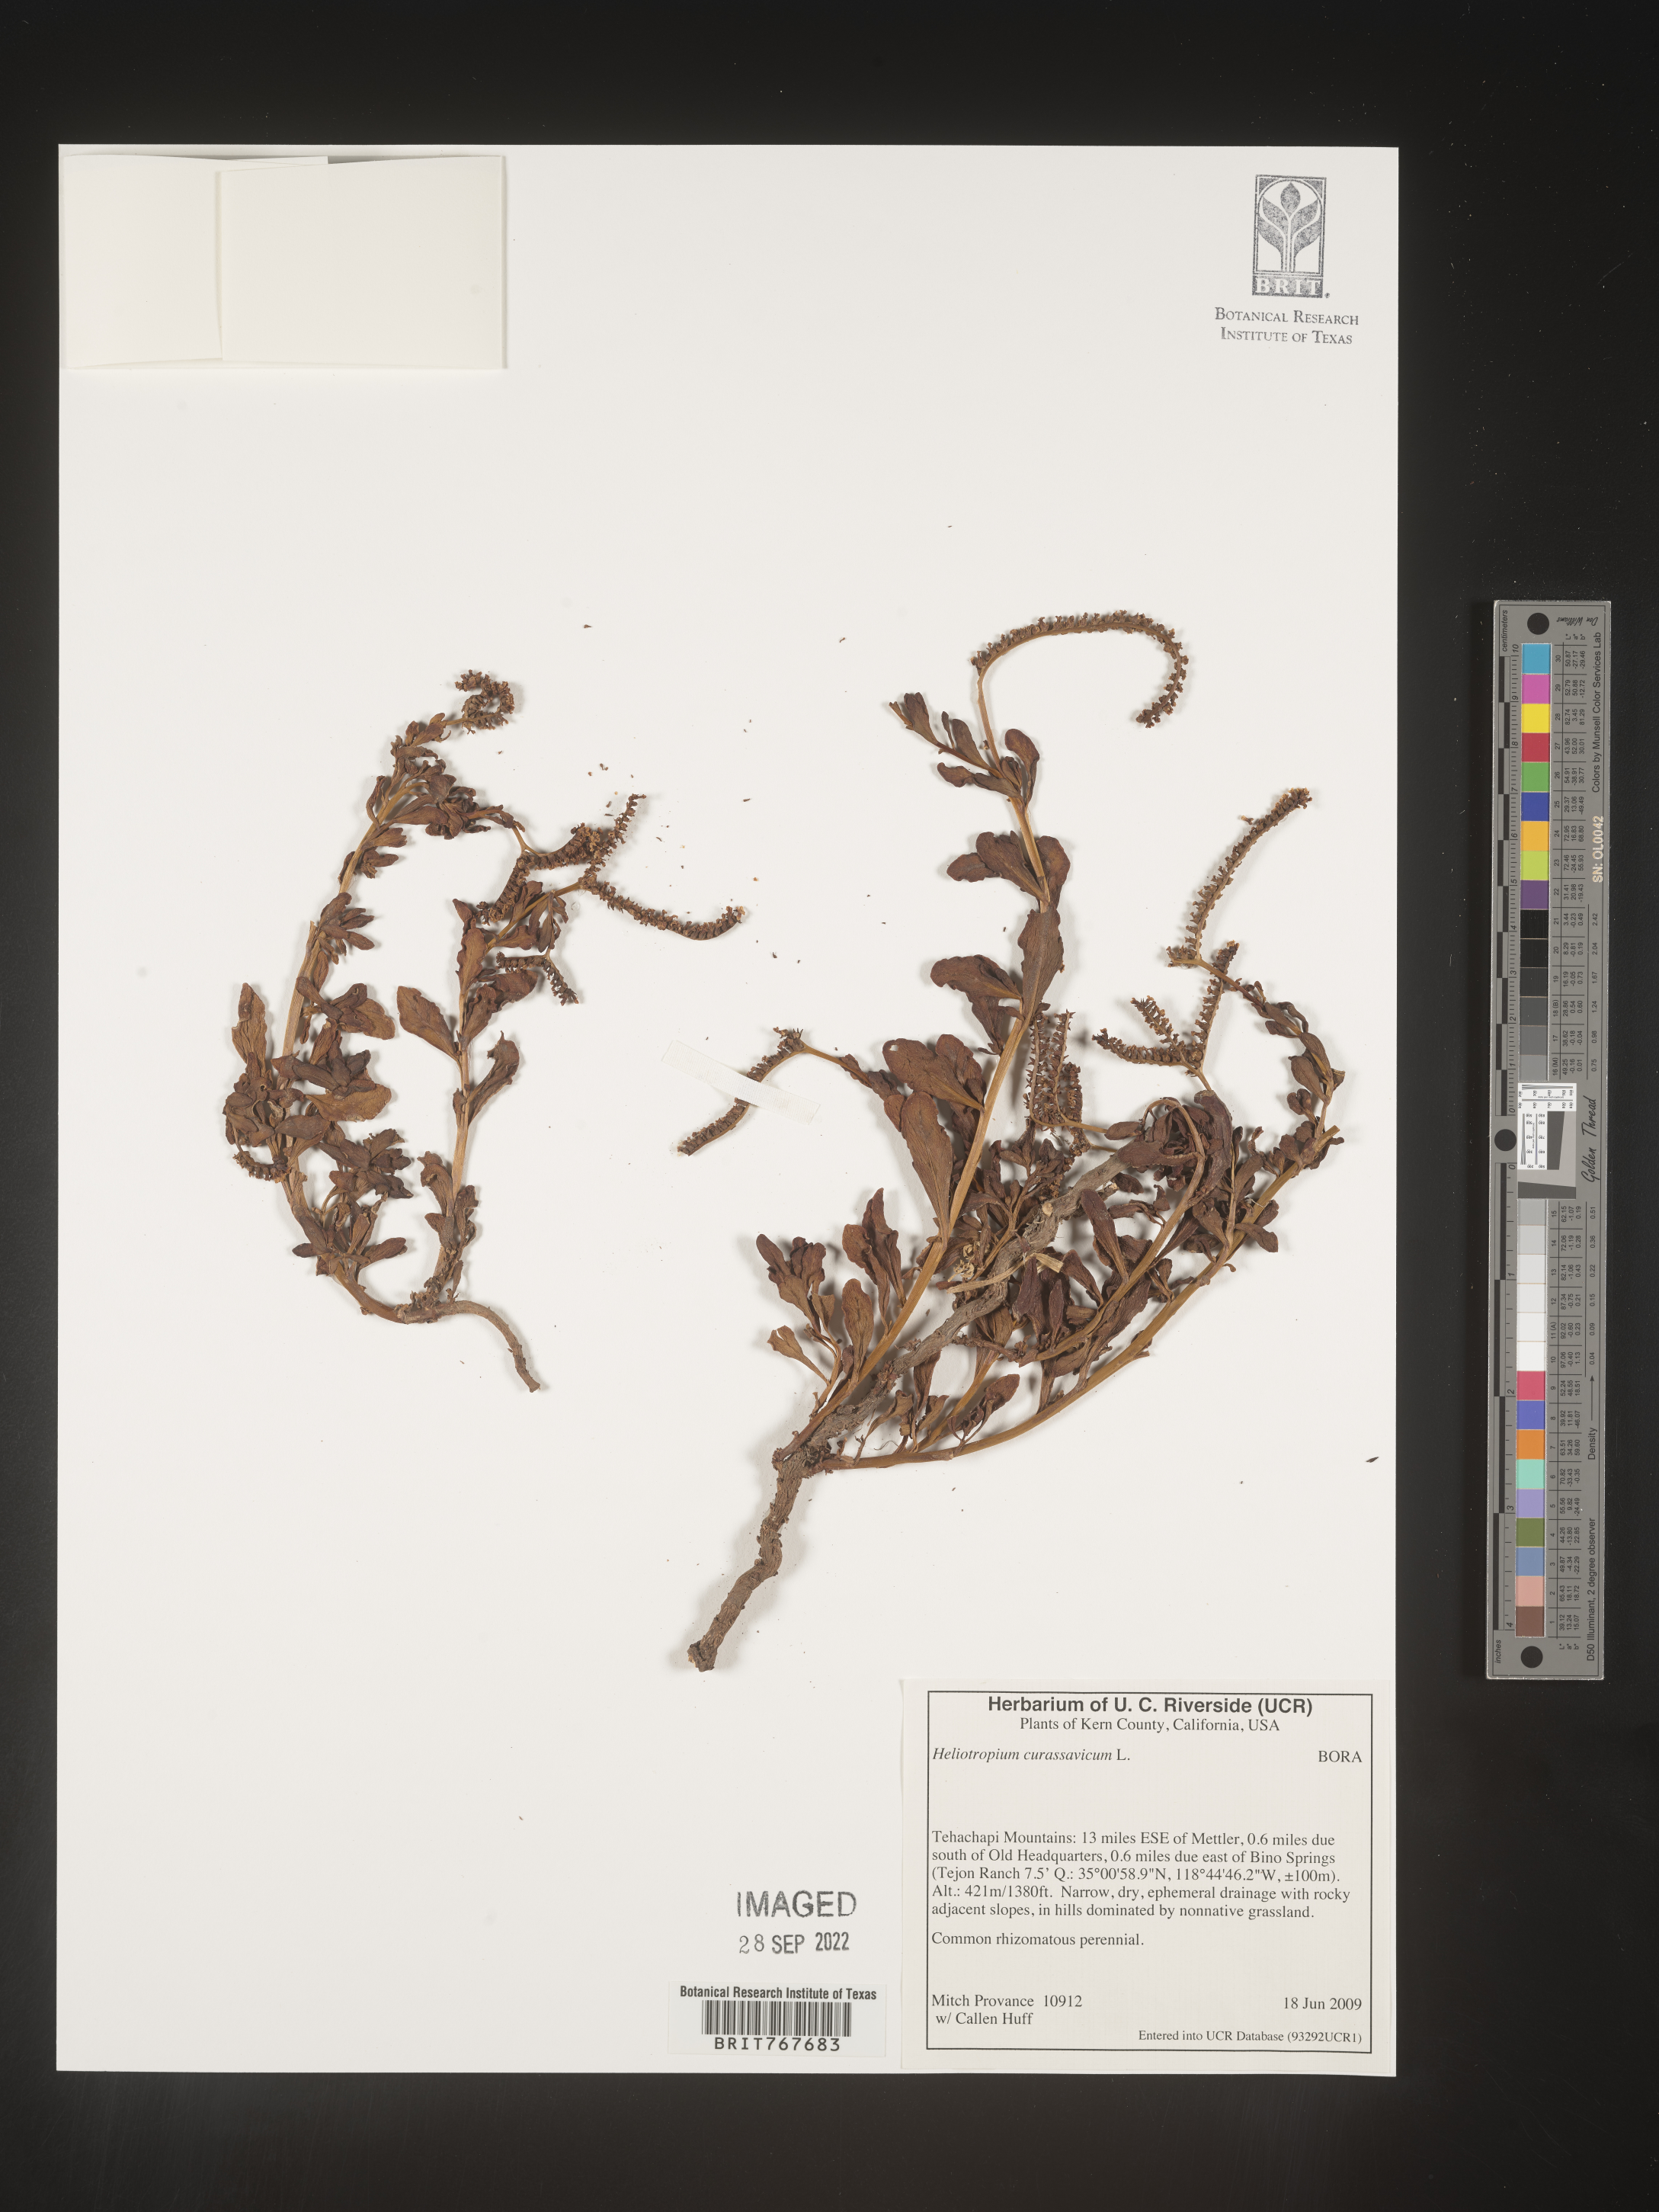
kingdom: Plantae
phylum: Tracheophyta
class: Magnoliopsida
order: Boraginales
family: Heliotropiaceae
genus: Heliotropium
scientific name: Heliotropium curassavicum
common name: Seaside heliotrope
